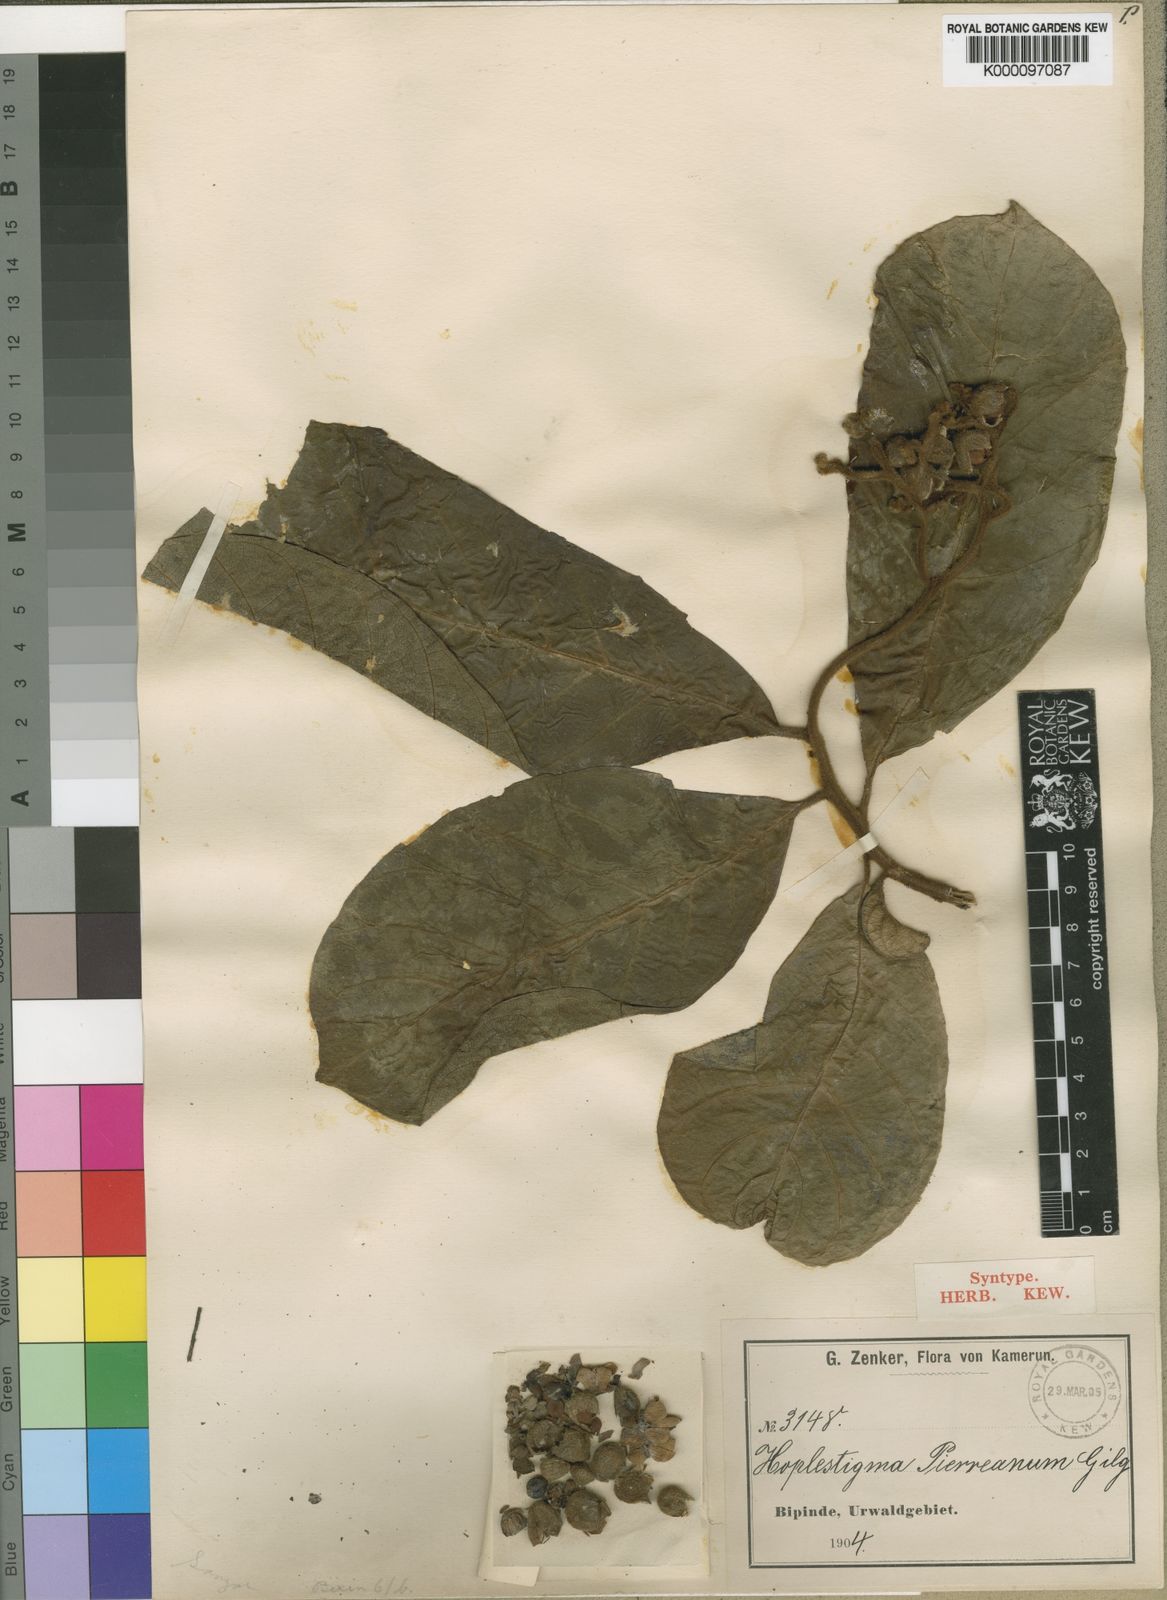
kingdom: Plantae
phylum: Tracheophyta
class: Magnoliopsida
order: Boraginales
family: Hoplestigmataceae
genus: Hoplestigma
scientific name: Hoplestigma pierreanum
